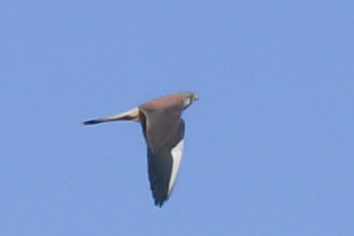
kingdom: Animalia
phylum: Chordata
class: Aves
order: Falconiformes
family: Falconidae
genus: Falco
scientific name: Falco tinnunculus
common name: Tårnfalk
